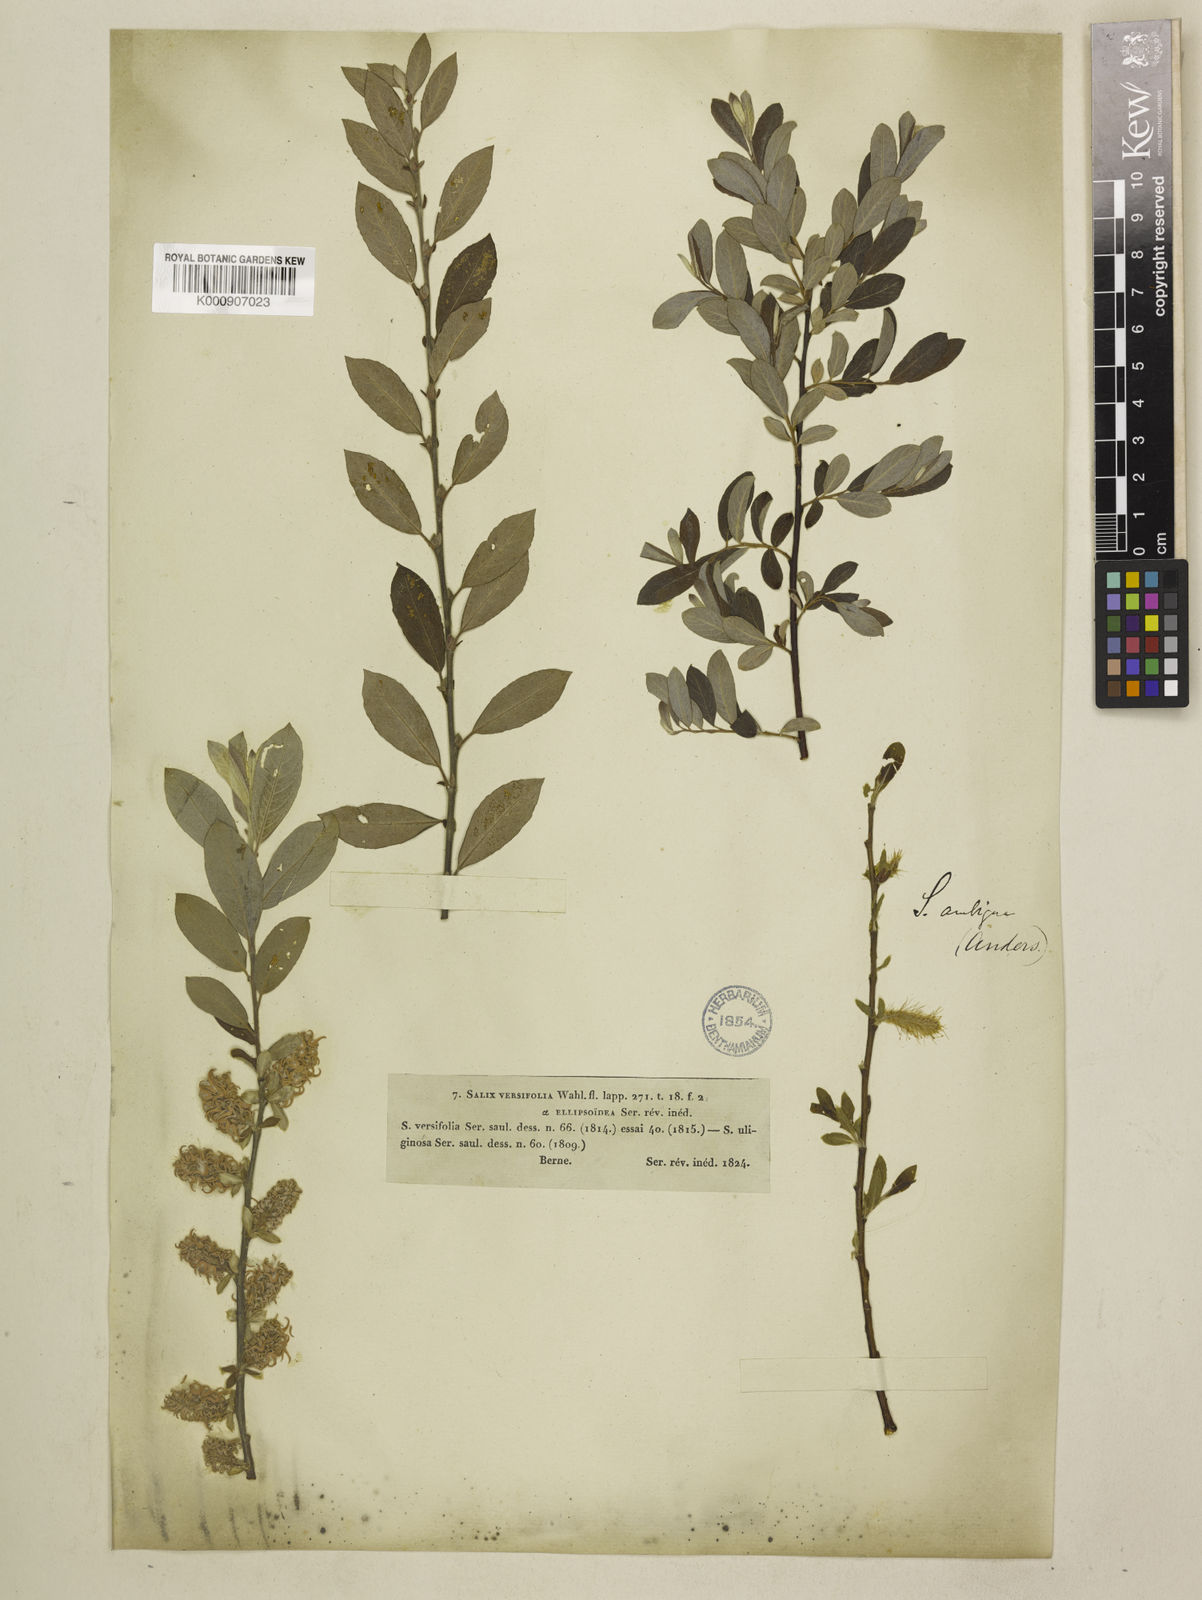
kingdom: Plantae
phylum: Tracheophyta
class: Magnoliopsida
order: Malpighiales
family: Salicaceae
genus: Salix
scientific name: Salix aurita
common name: Eared willow
